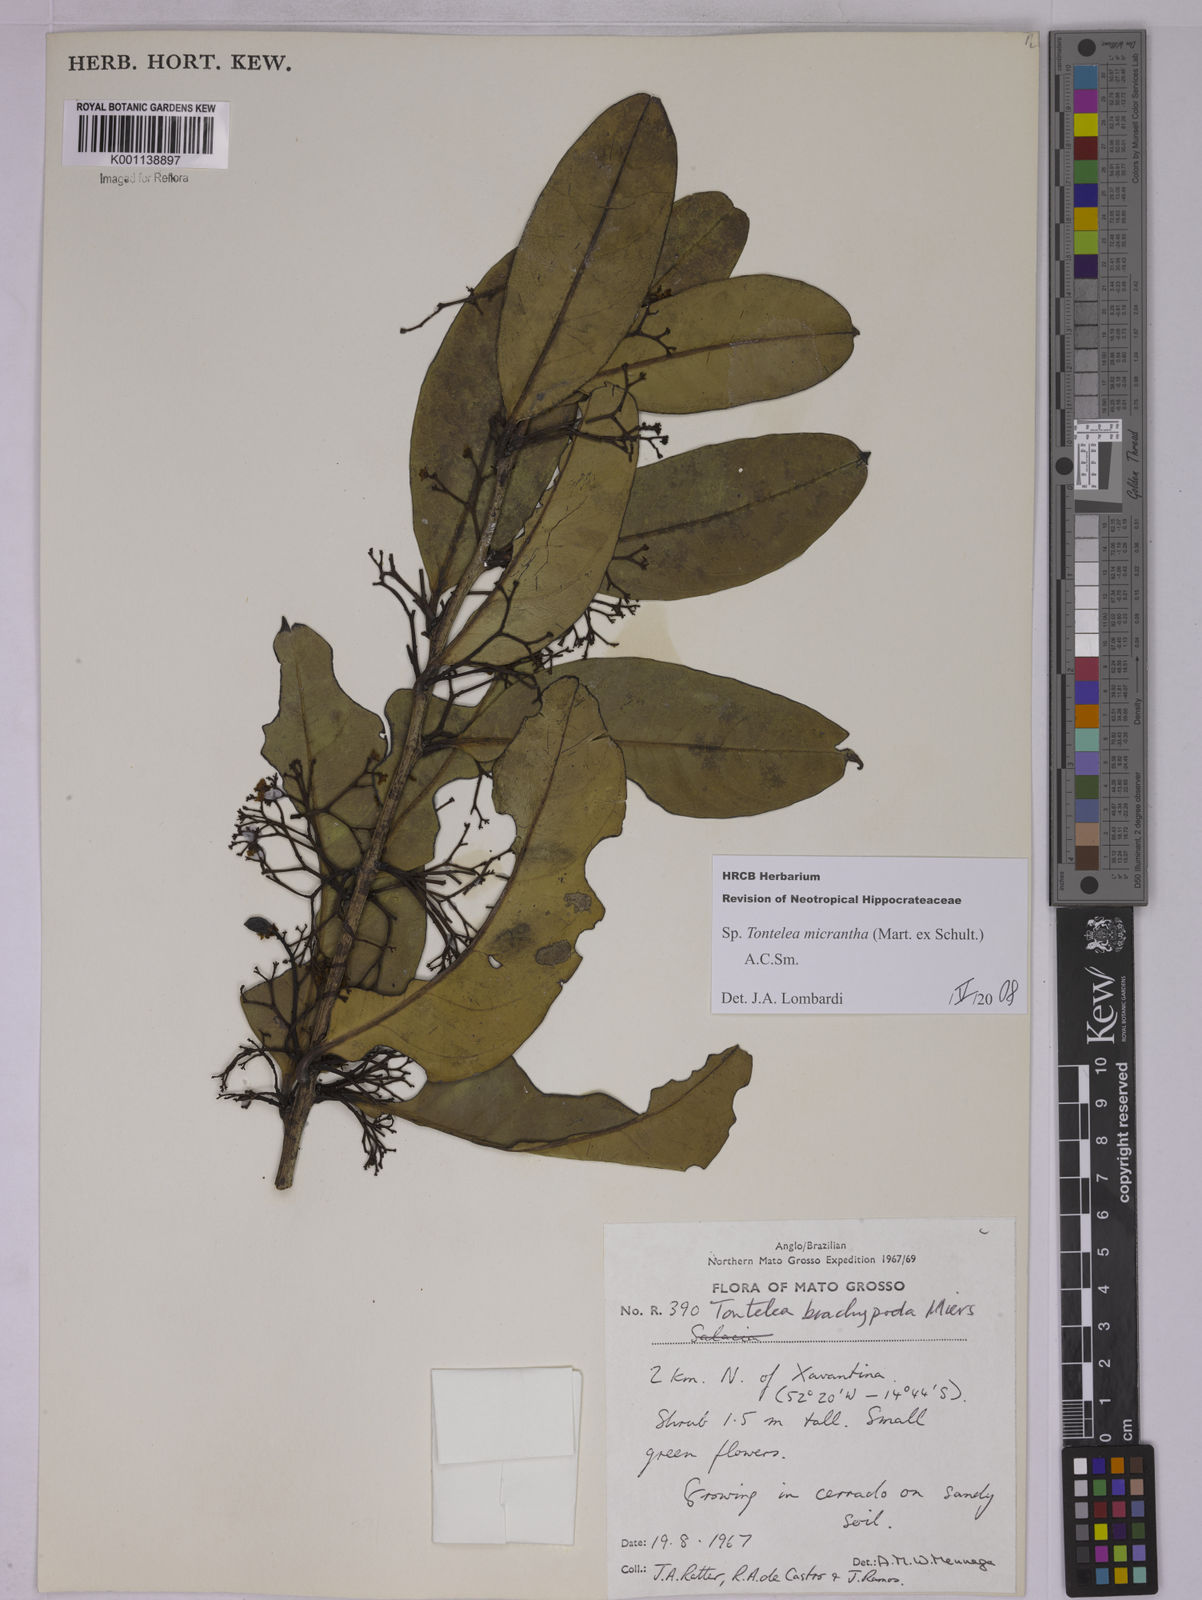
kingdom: Plantae
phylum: Tracheophyta
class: Magnoliopsida
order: Celastrales
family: Celastraceae
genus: Tontelea
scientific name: Tontelea micrantha
